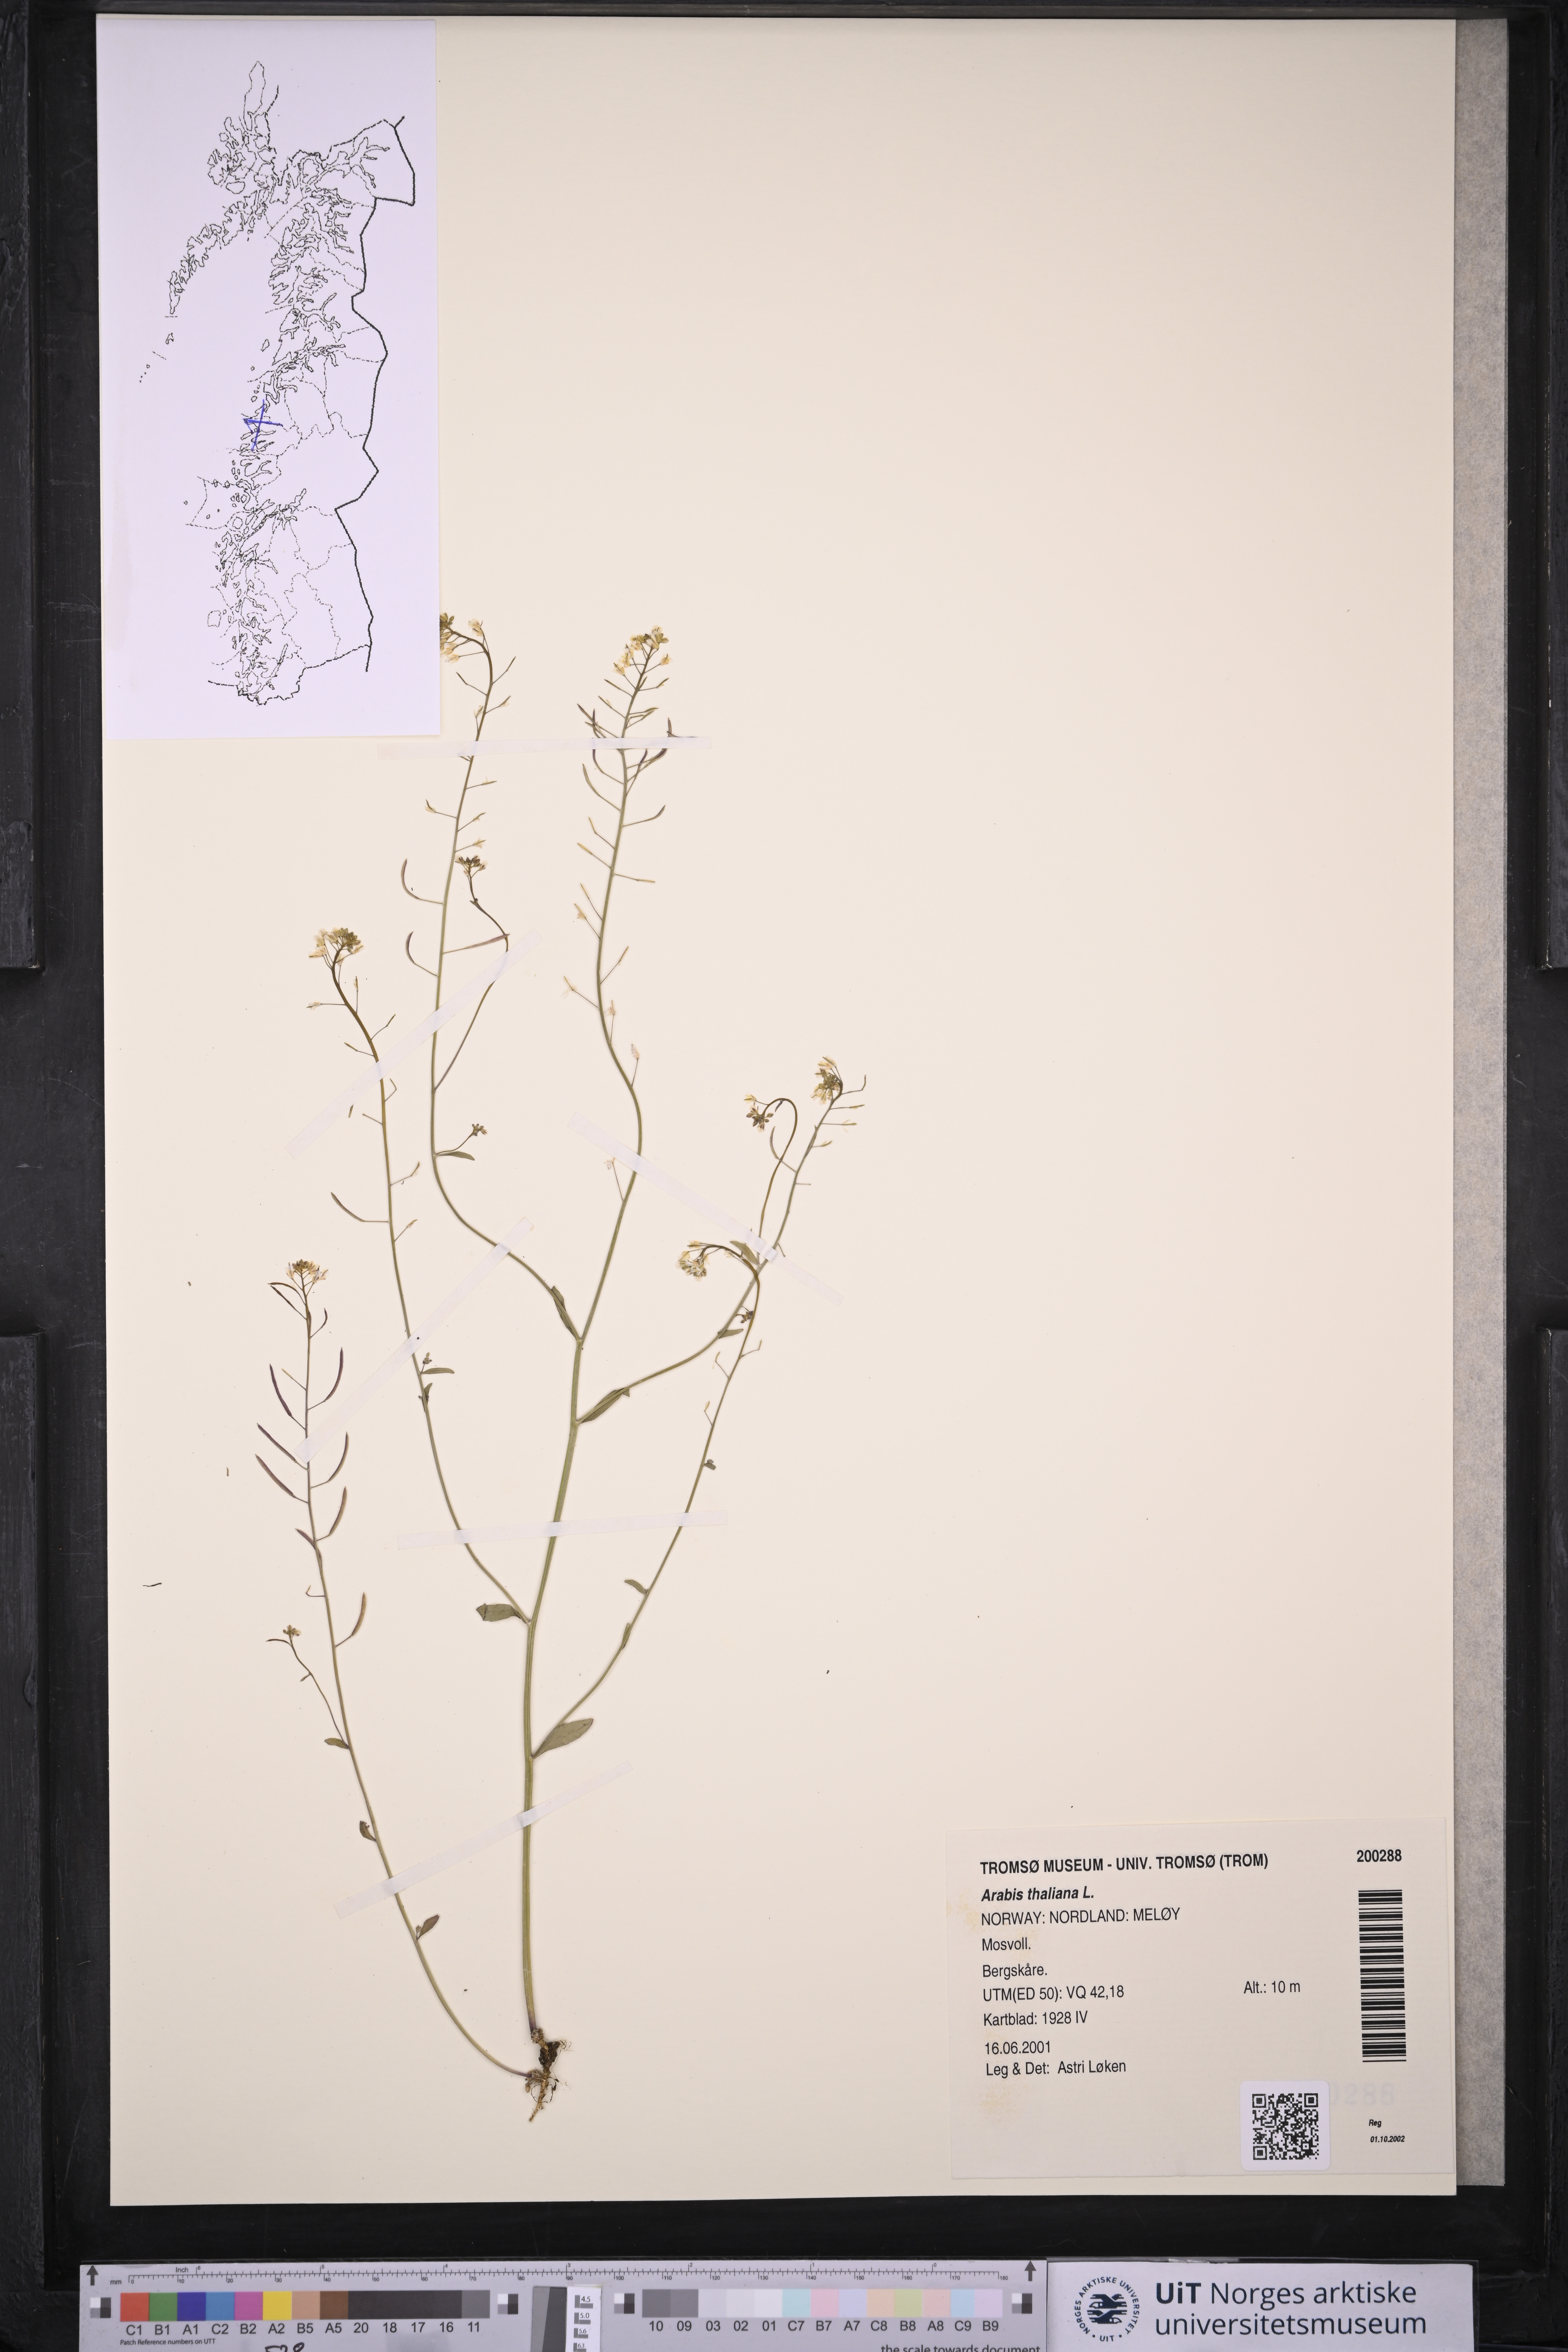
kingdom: Plantae
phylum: Tracheophyta
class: Magnoliopsida
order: Brassicales
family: Brassicaceae
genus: Arabidopsis
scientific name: Arabidopsis thaliana
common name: Thale cress
